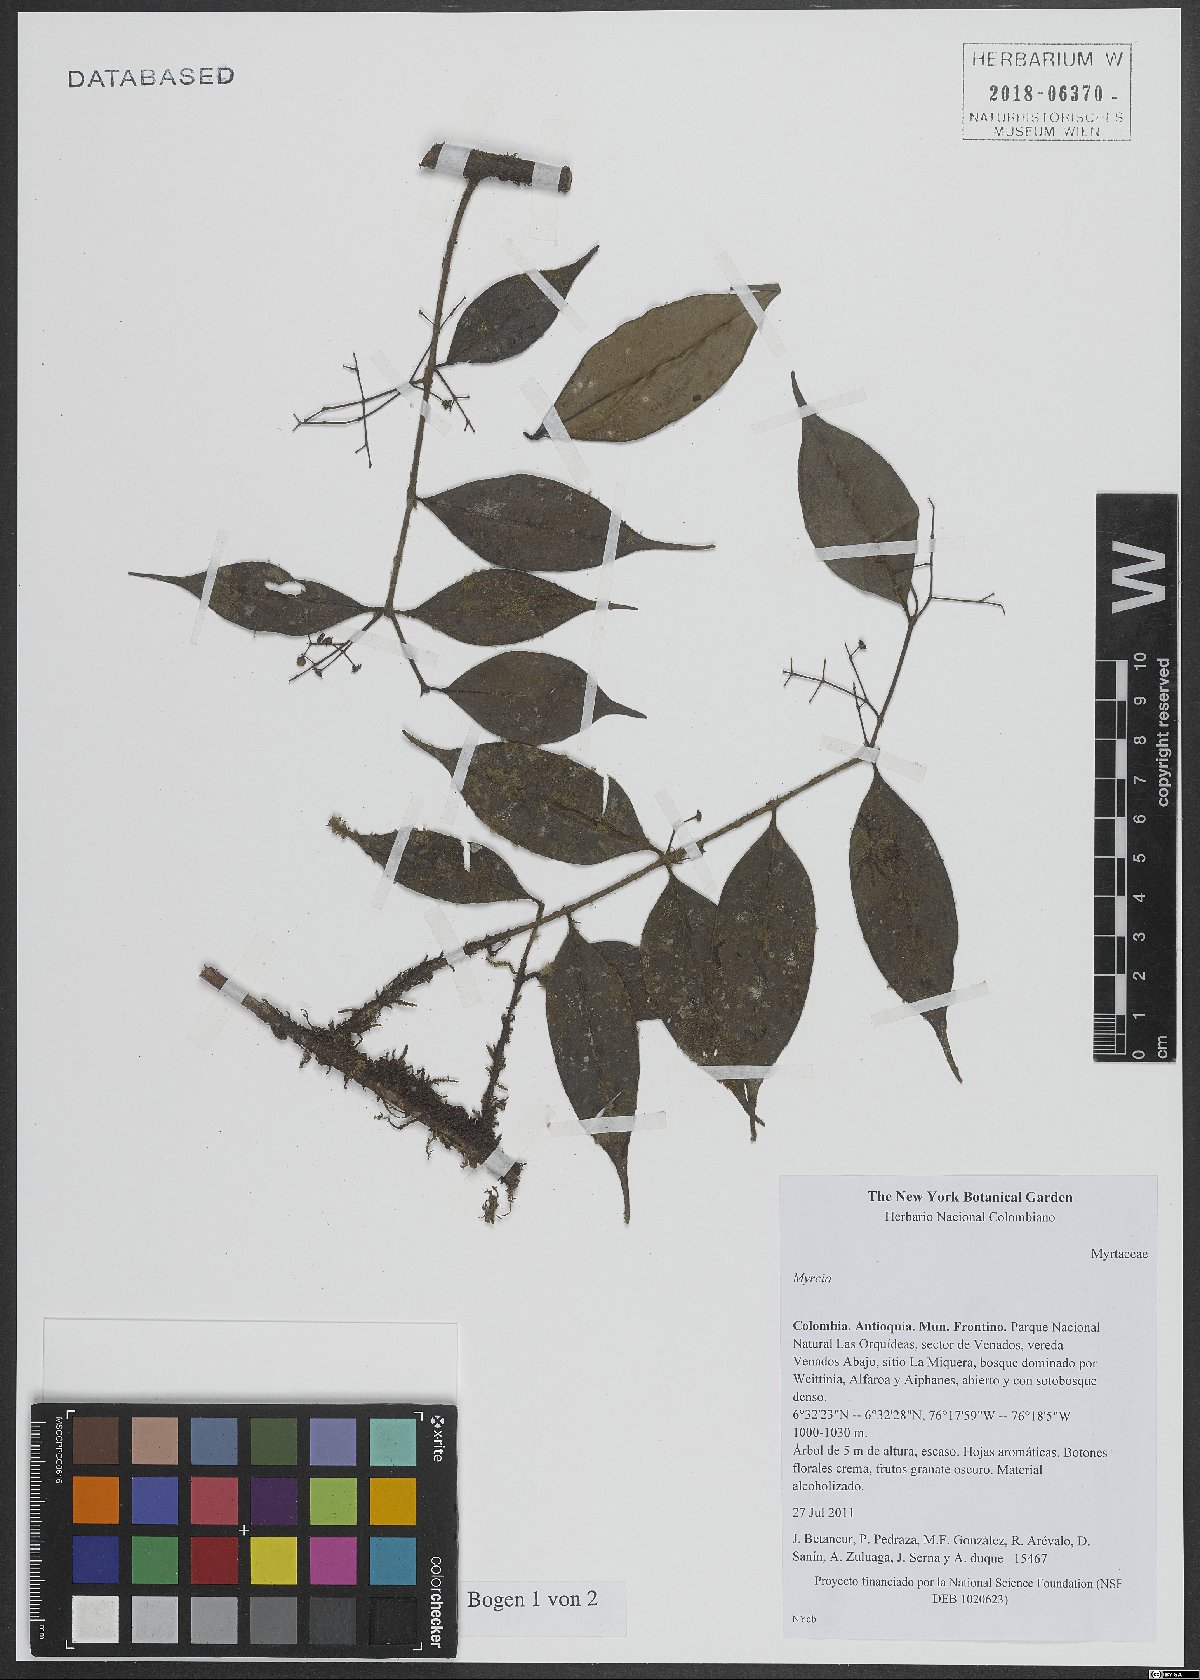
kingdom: Plantae
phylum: Tracheophyta
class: Magnoliopsida
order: Myrtales
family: Myrtaceae
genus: Myrcia
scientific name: Myrcia
